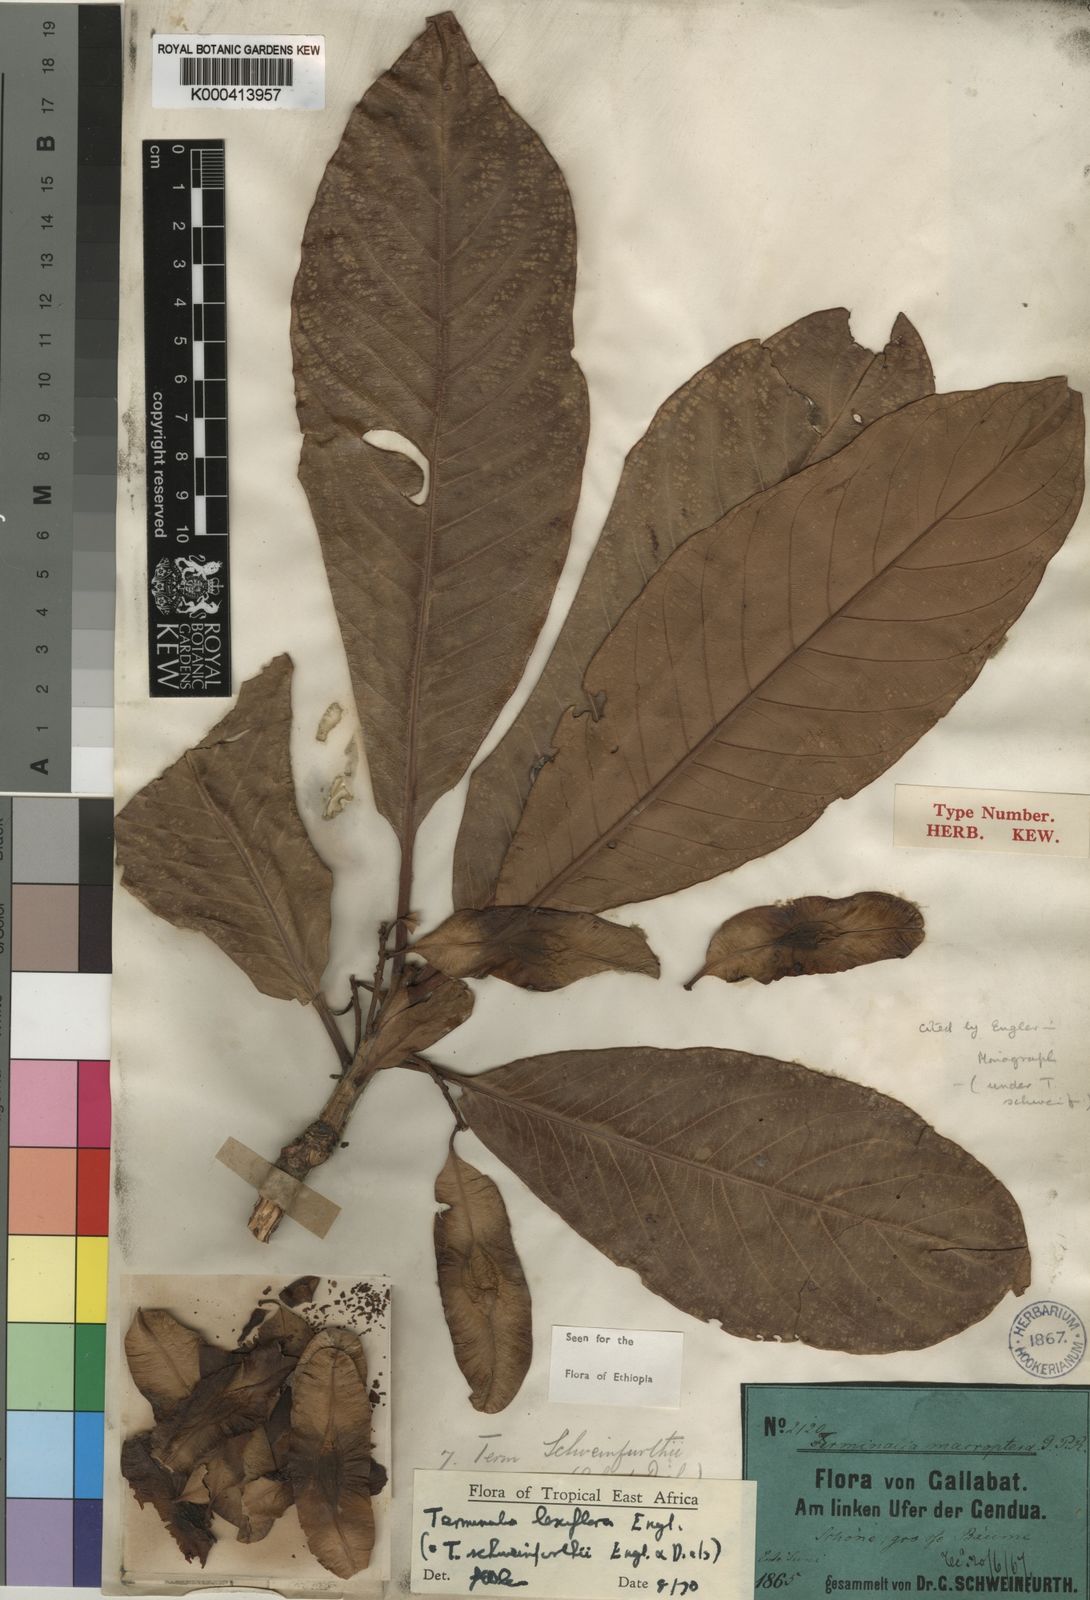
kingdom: Plantae
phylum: Tracheophyta
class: Magnoliopsida
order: Myrtales
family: Combretaceae
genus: Terminalia
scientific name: Terminalia laxiflora
